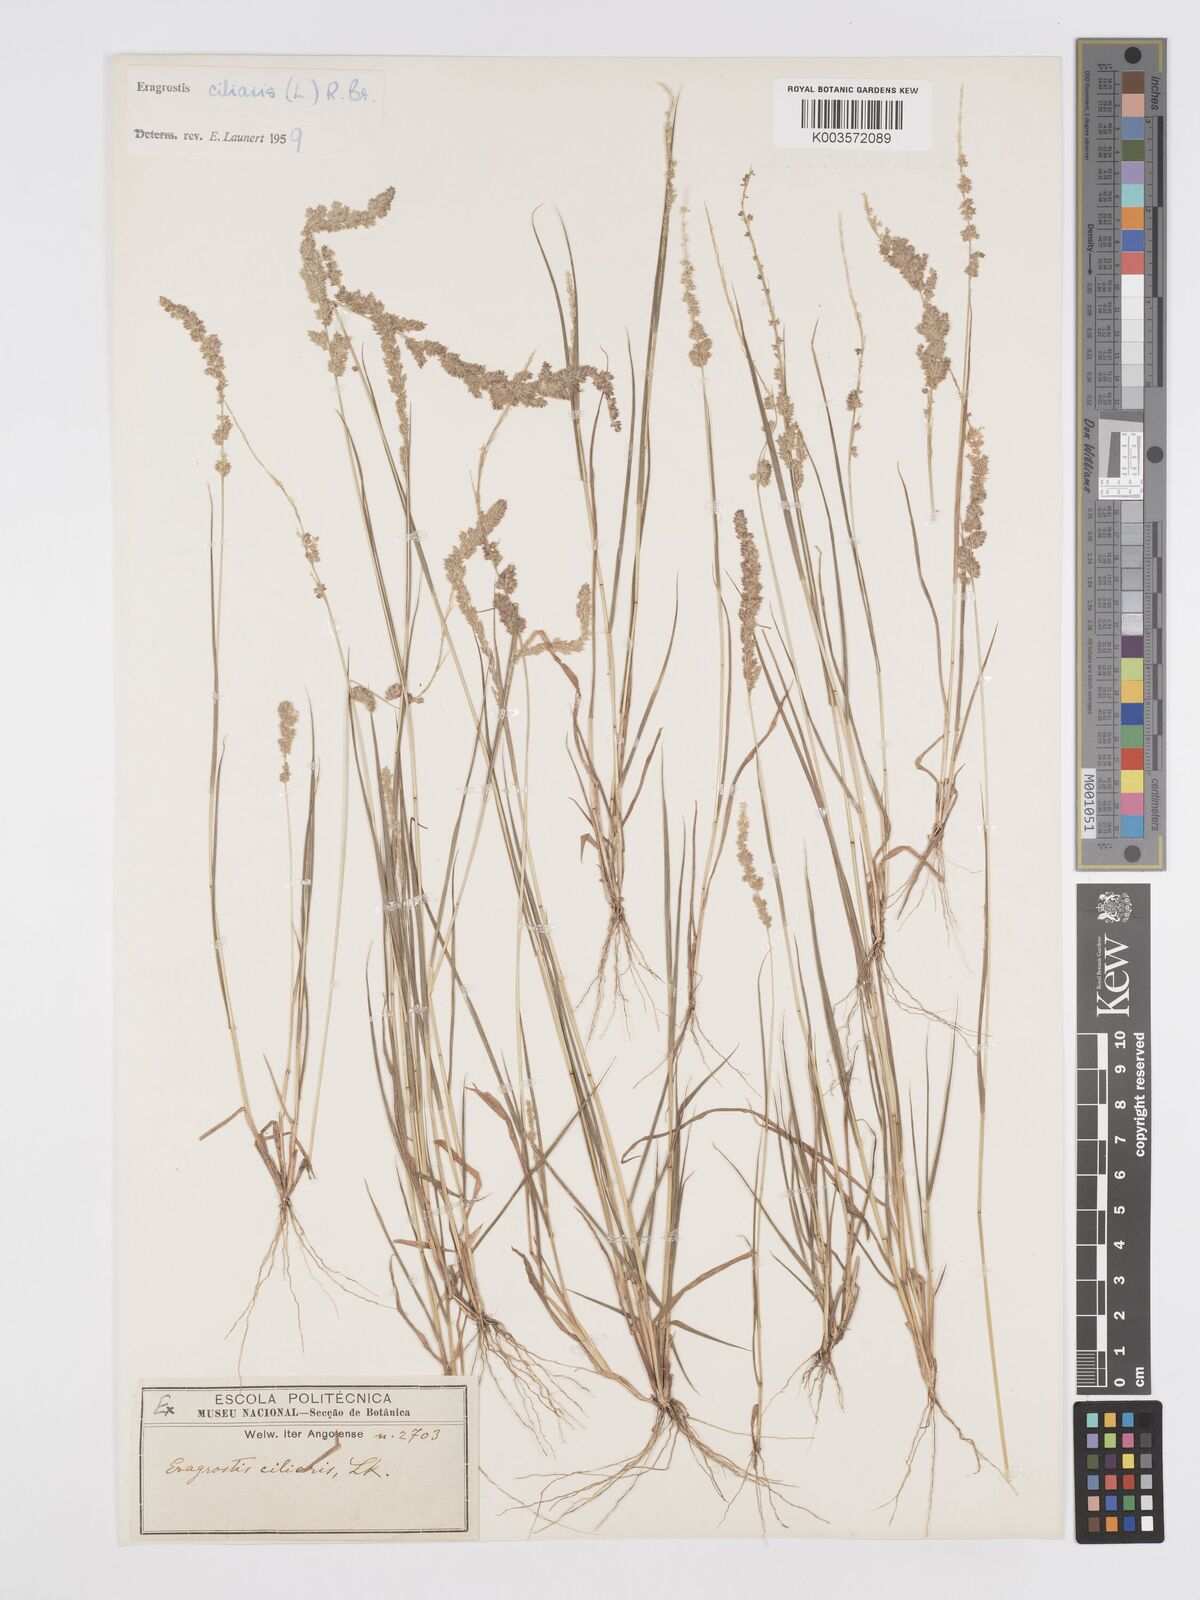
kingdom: Plantae
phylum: Tracheophyta
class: Liliopsida
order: Poales
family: Poaceae
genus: Eragrostis
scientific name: Eragrostis ciliaris
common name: Gophertail lovegrass
